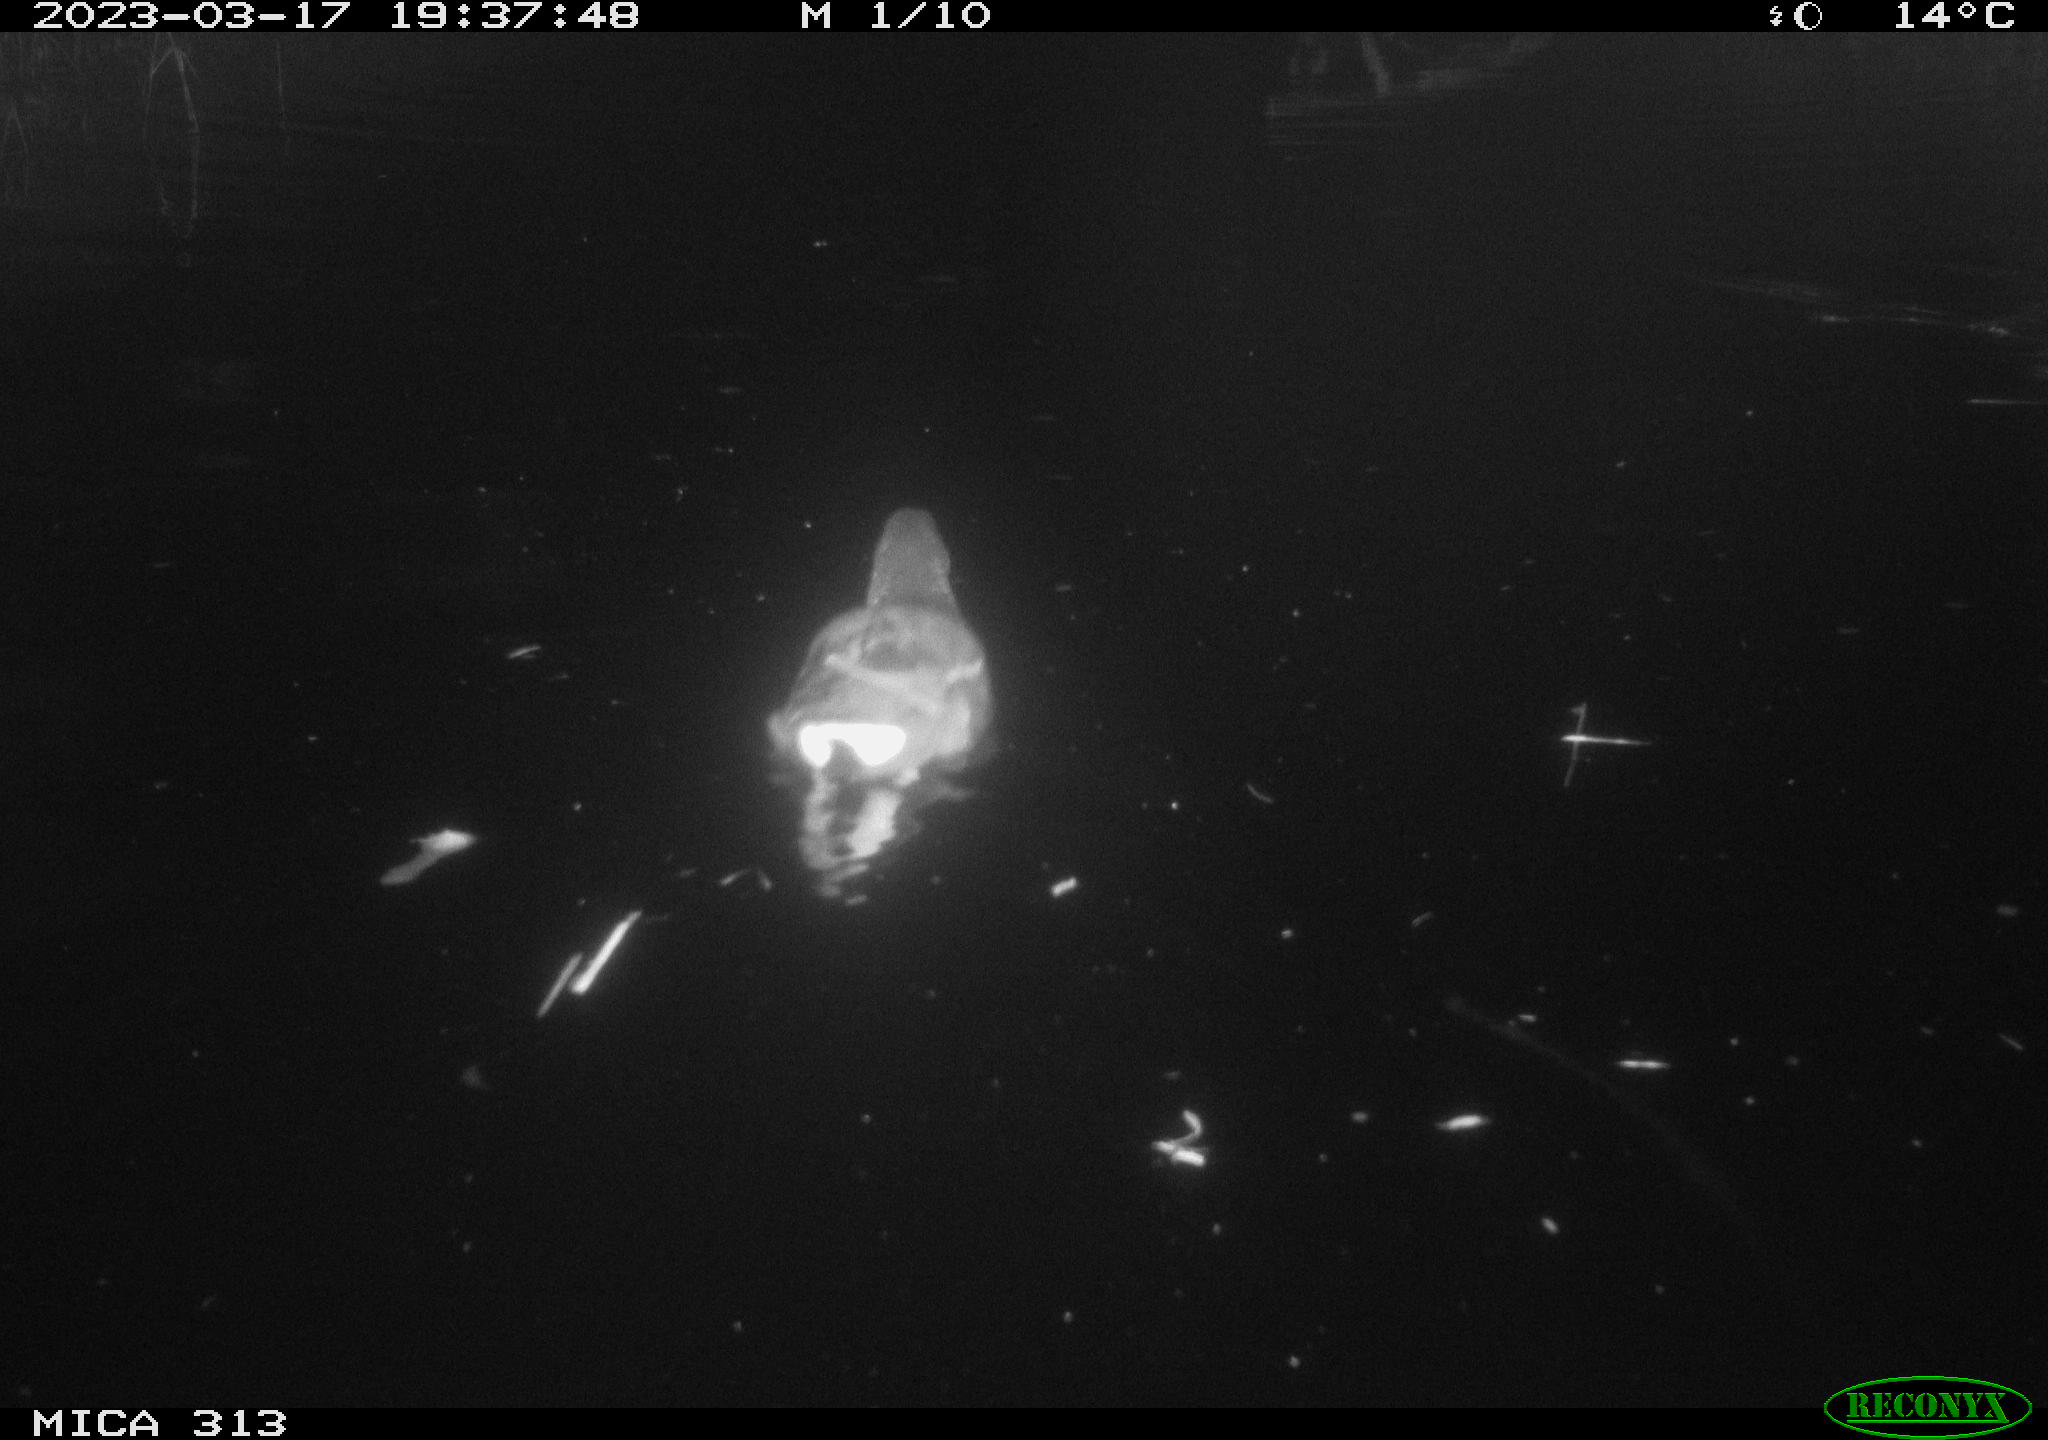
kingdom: Animalia
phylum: Chordata
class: Aves
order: Gruiformes
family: Rallidae
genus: Gallinula
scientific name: Gallinula chloropus
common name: Common moorhen
